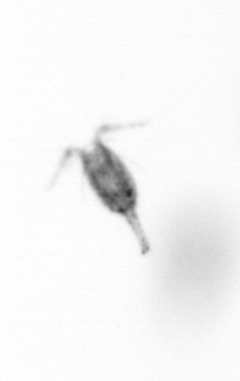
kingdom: Animalia
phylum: Arthropoda
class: Copepoda
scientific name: Copepoda
